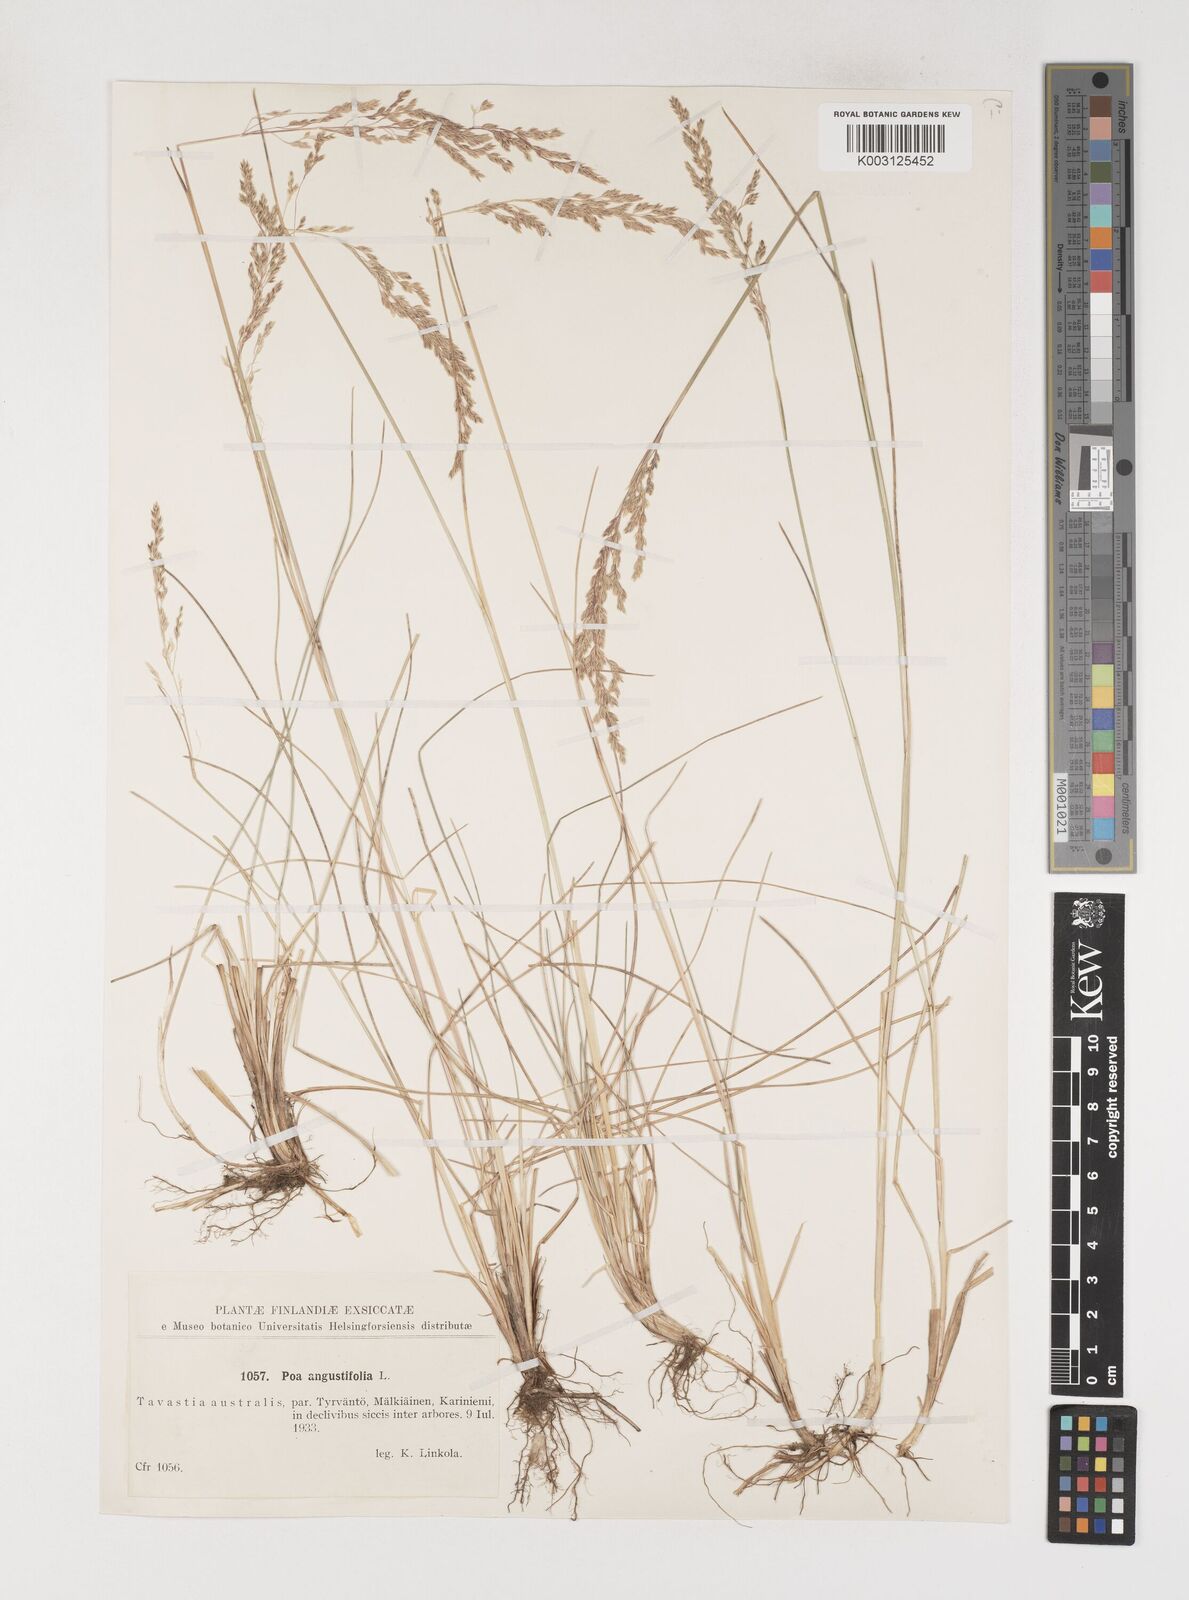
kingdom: Plantae
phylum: Tracheophyta
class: Liliopsida
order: Poales
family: Poaceae
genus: Poa
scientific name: Poa angustifolia
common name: Narrow-leaved meadow-grass
